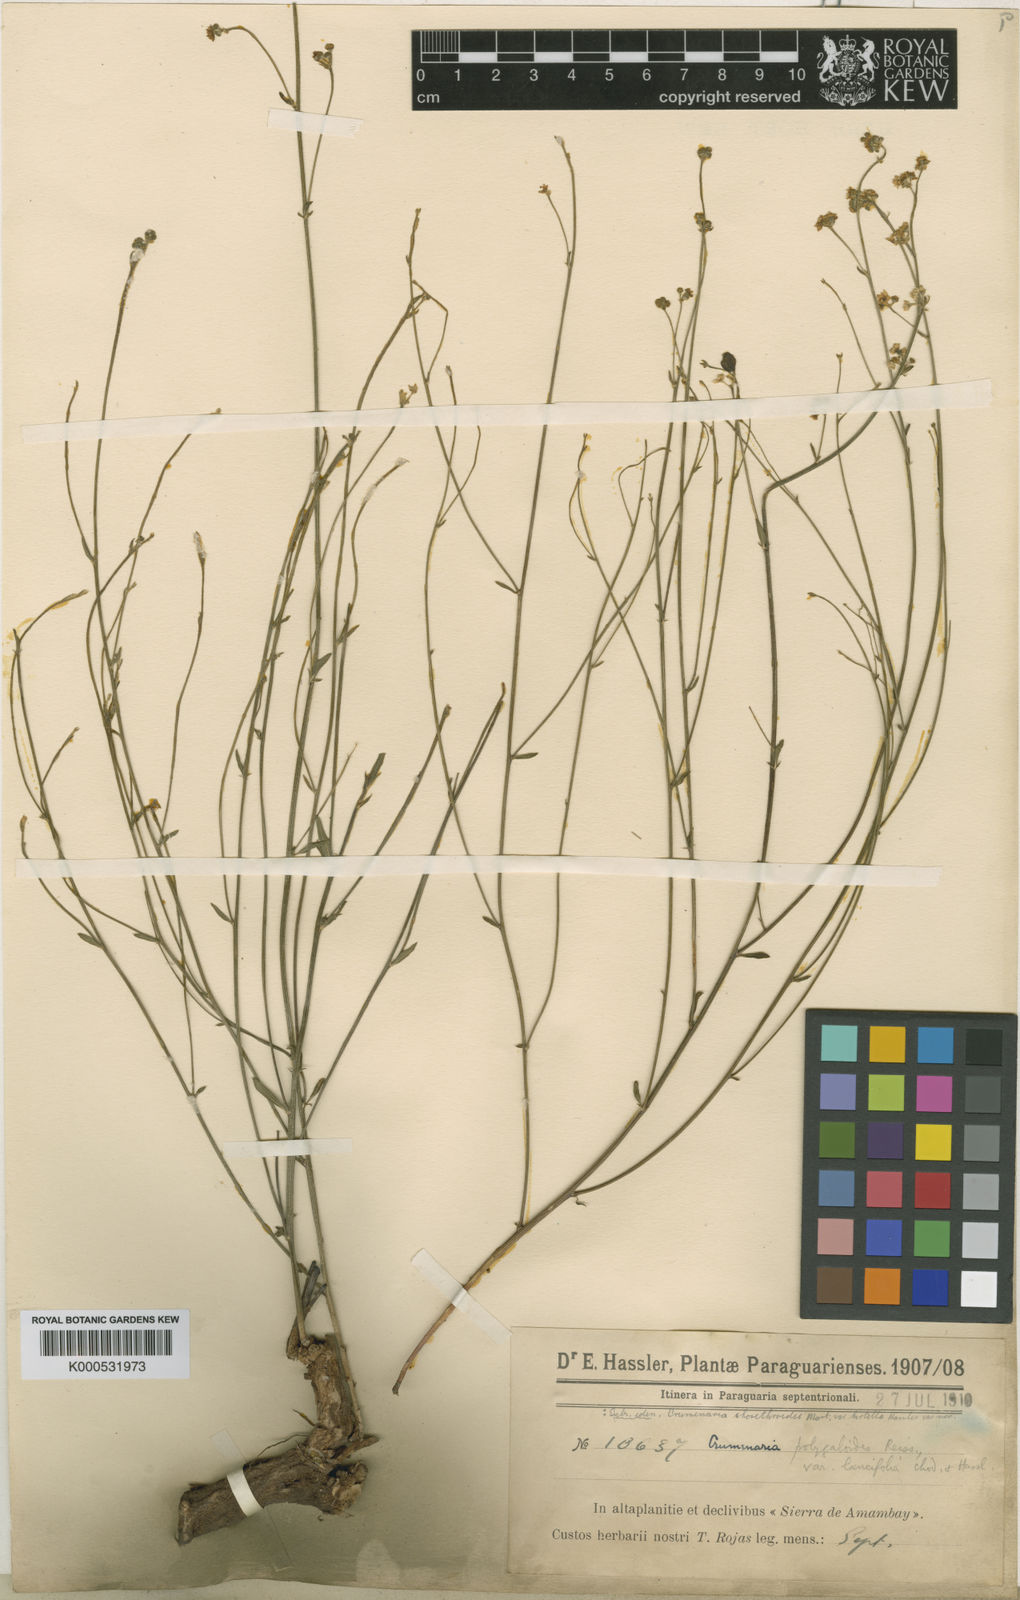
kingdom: Plantae
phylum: Tracheophyta
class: Magnoliopsida
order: Rosales
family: Rhamnaceae
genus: Crumenaria
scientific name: Crumenaria choretroides
